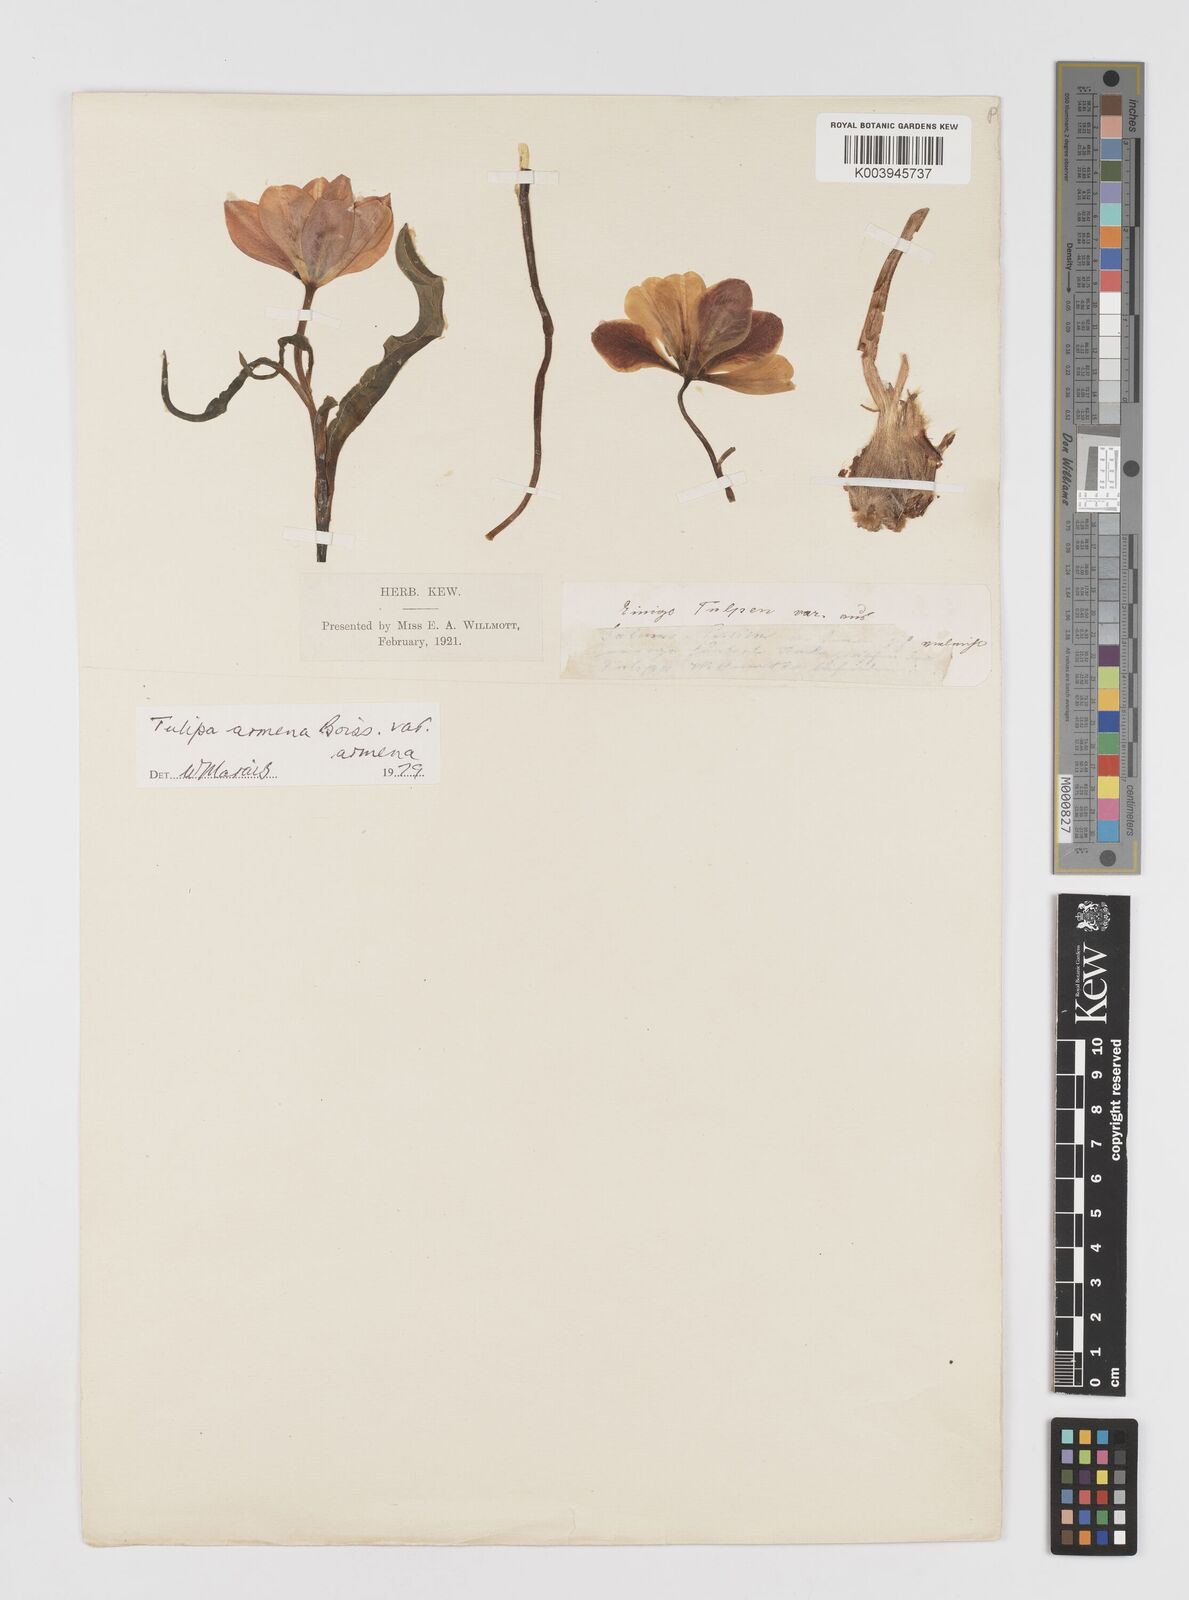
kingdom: Plantae
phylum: Tracheophyta
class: Liliopsida
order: Liliales
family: Liliaceae
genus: Tulipa
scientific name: Tulipa armena
